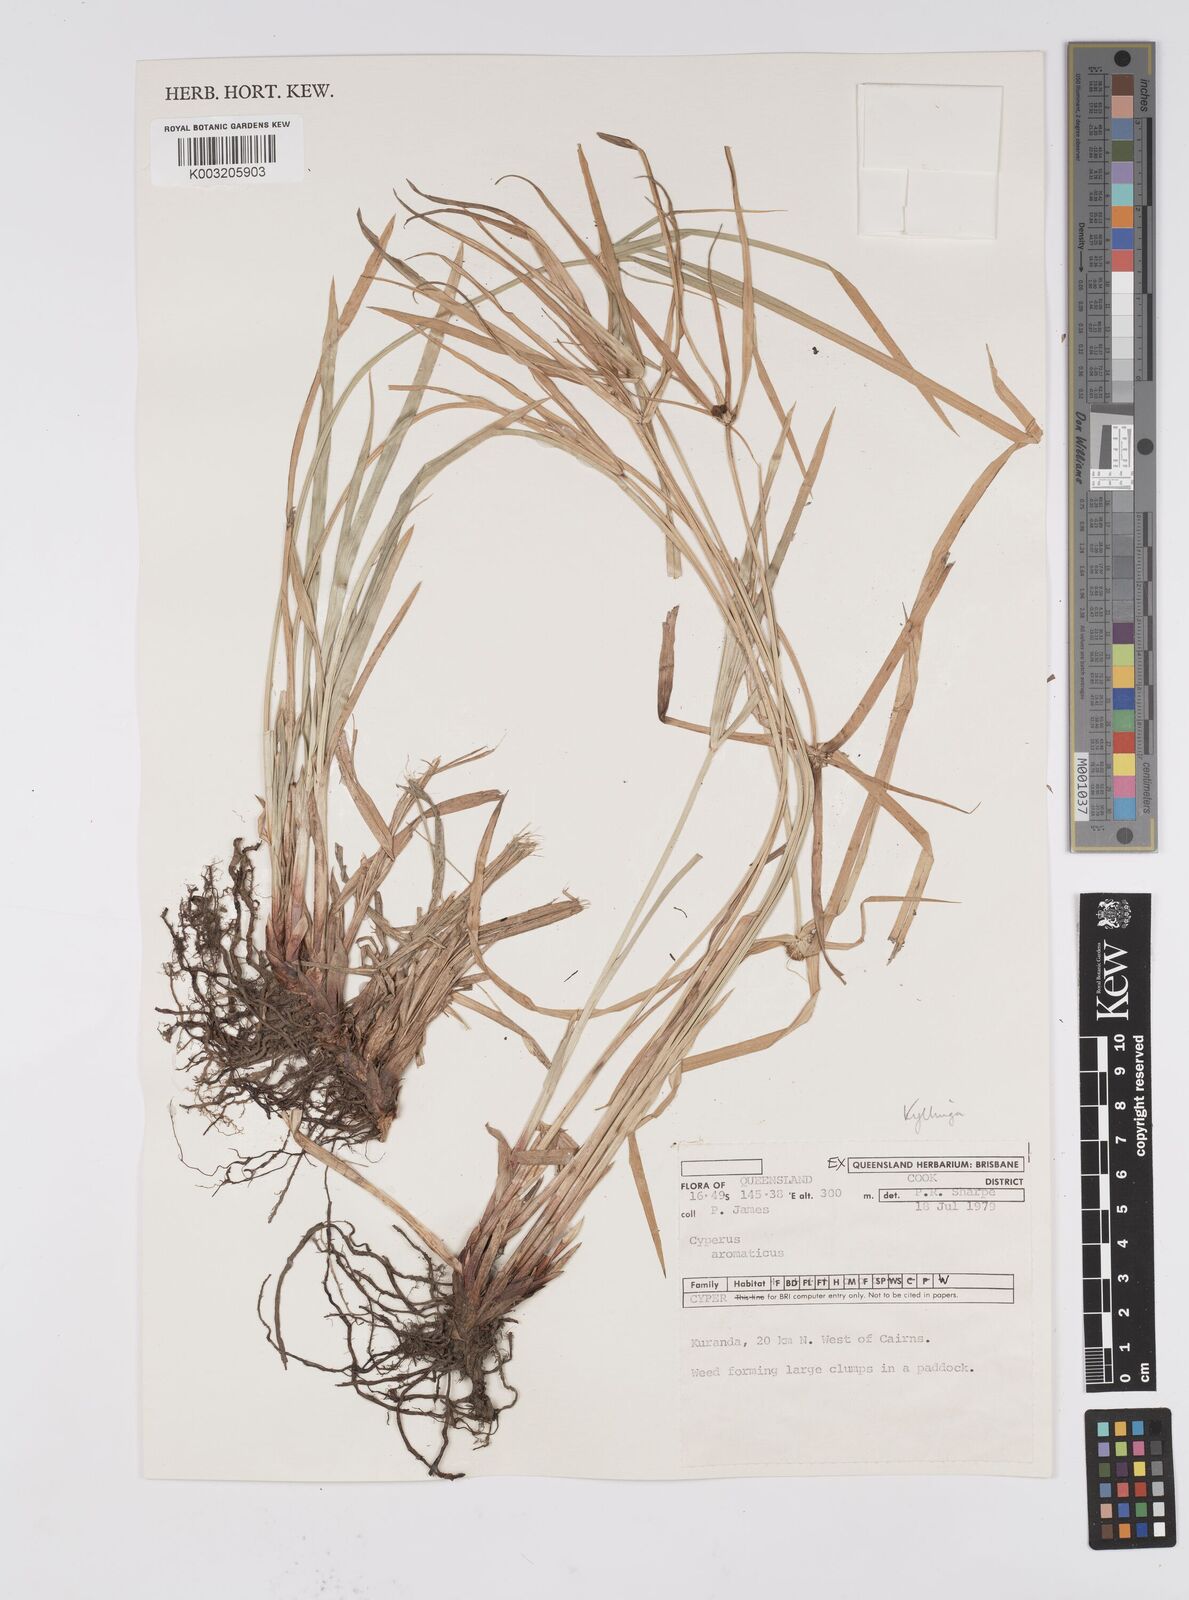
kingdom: Plantae
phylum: Tracheophyta
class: Liliopsida
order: Poales
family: Cyperaceae
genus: Cyperus
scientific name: Cyperus bulbosus
